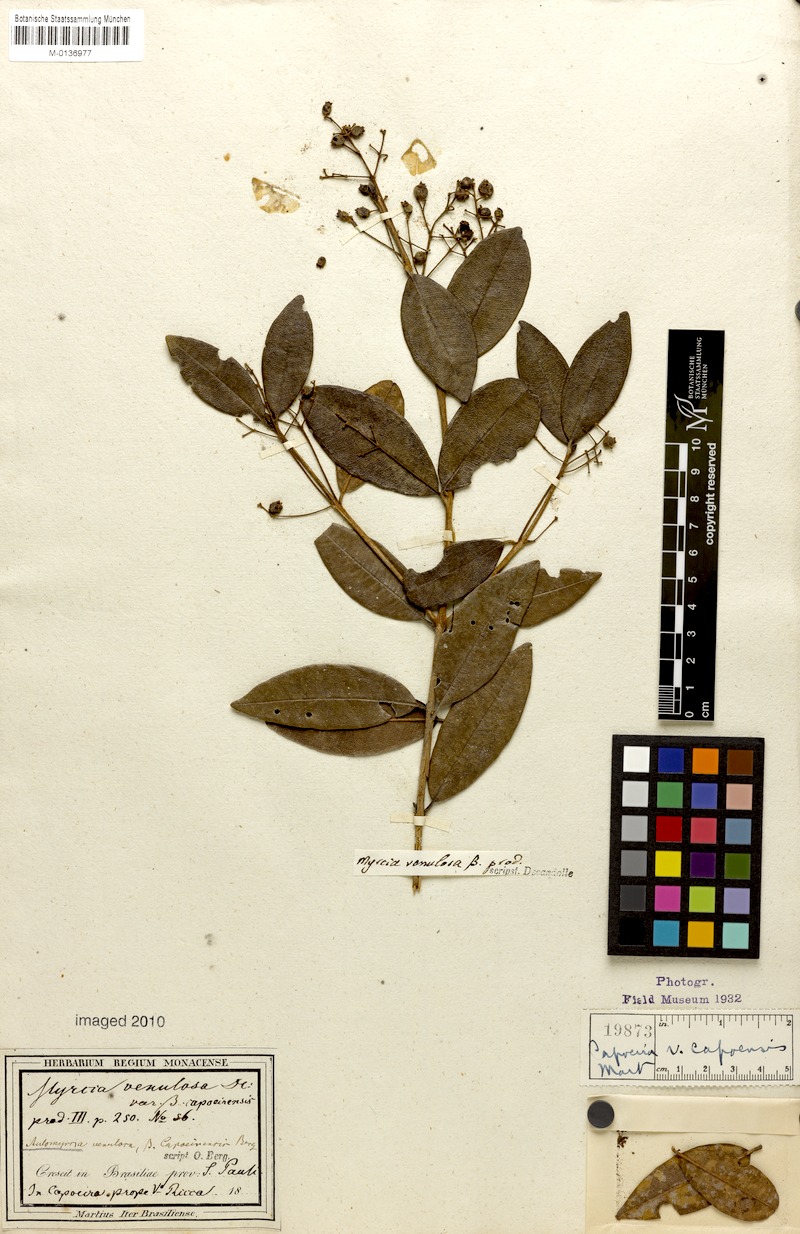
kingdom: Plantae
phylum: Tracheophyta
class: Magnoliopsida
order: Myrtales
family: Myrtaceae
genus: Myrcia
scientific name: Myrcia venulosa
